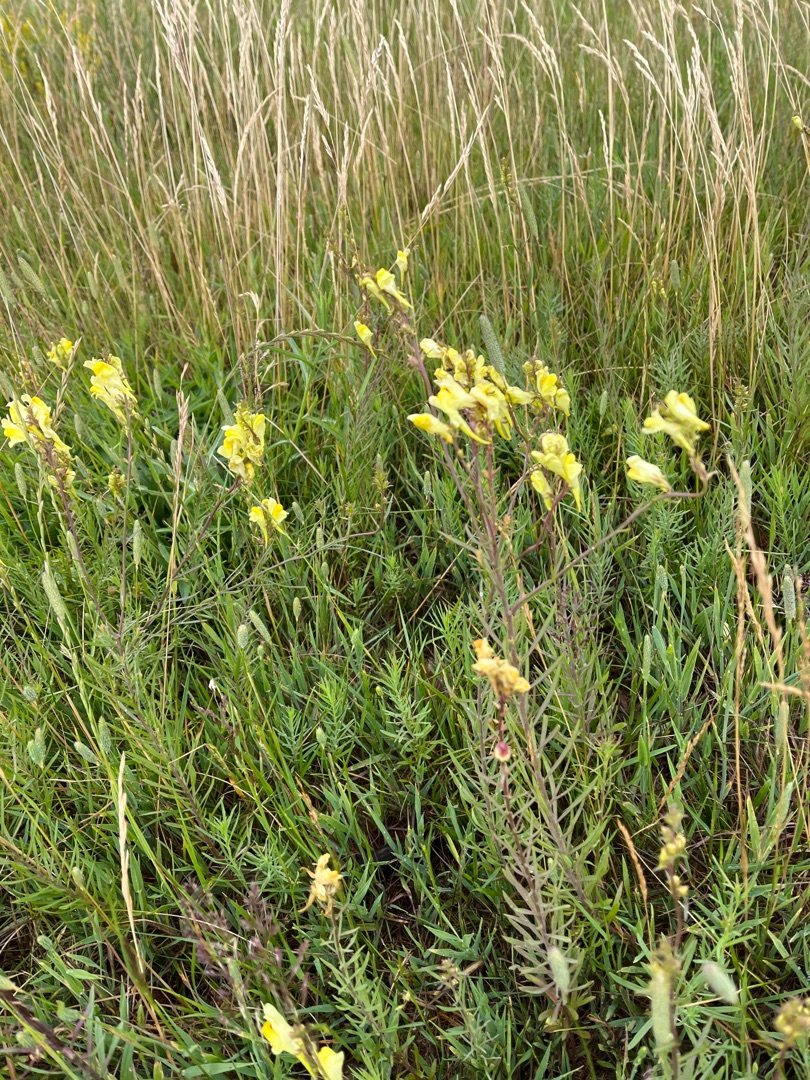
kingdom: Plantae
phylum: Tracheophyta
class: Magnoliopsida
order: Lamiales
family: Plantaginaceae
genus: Linaria
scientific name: Linaria vulgaris
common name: Almindelig torskemund
